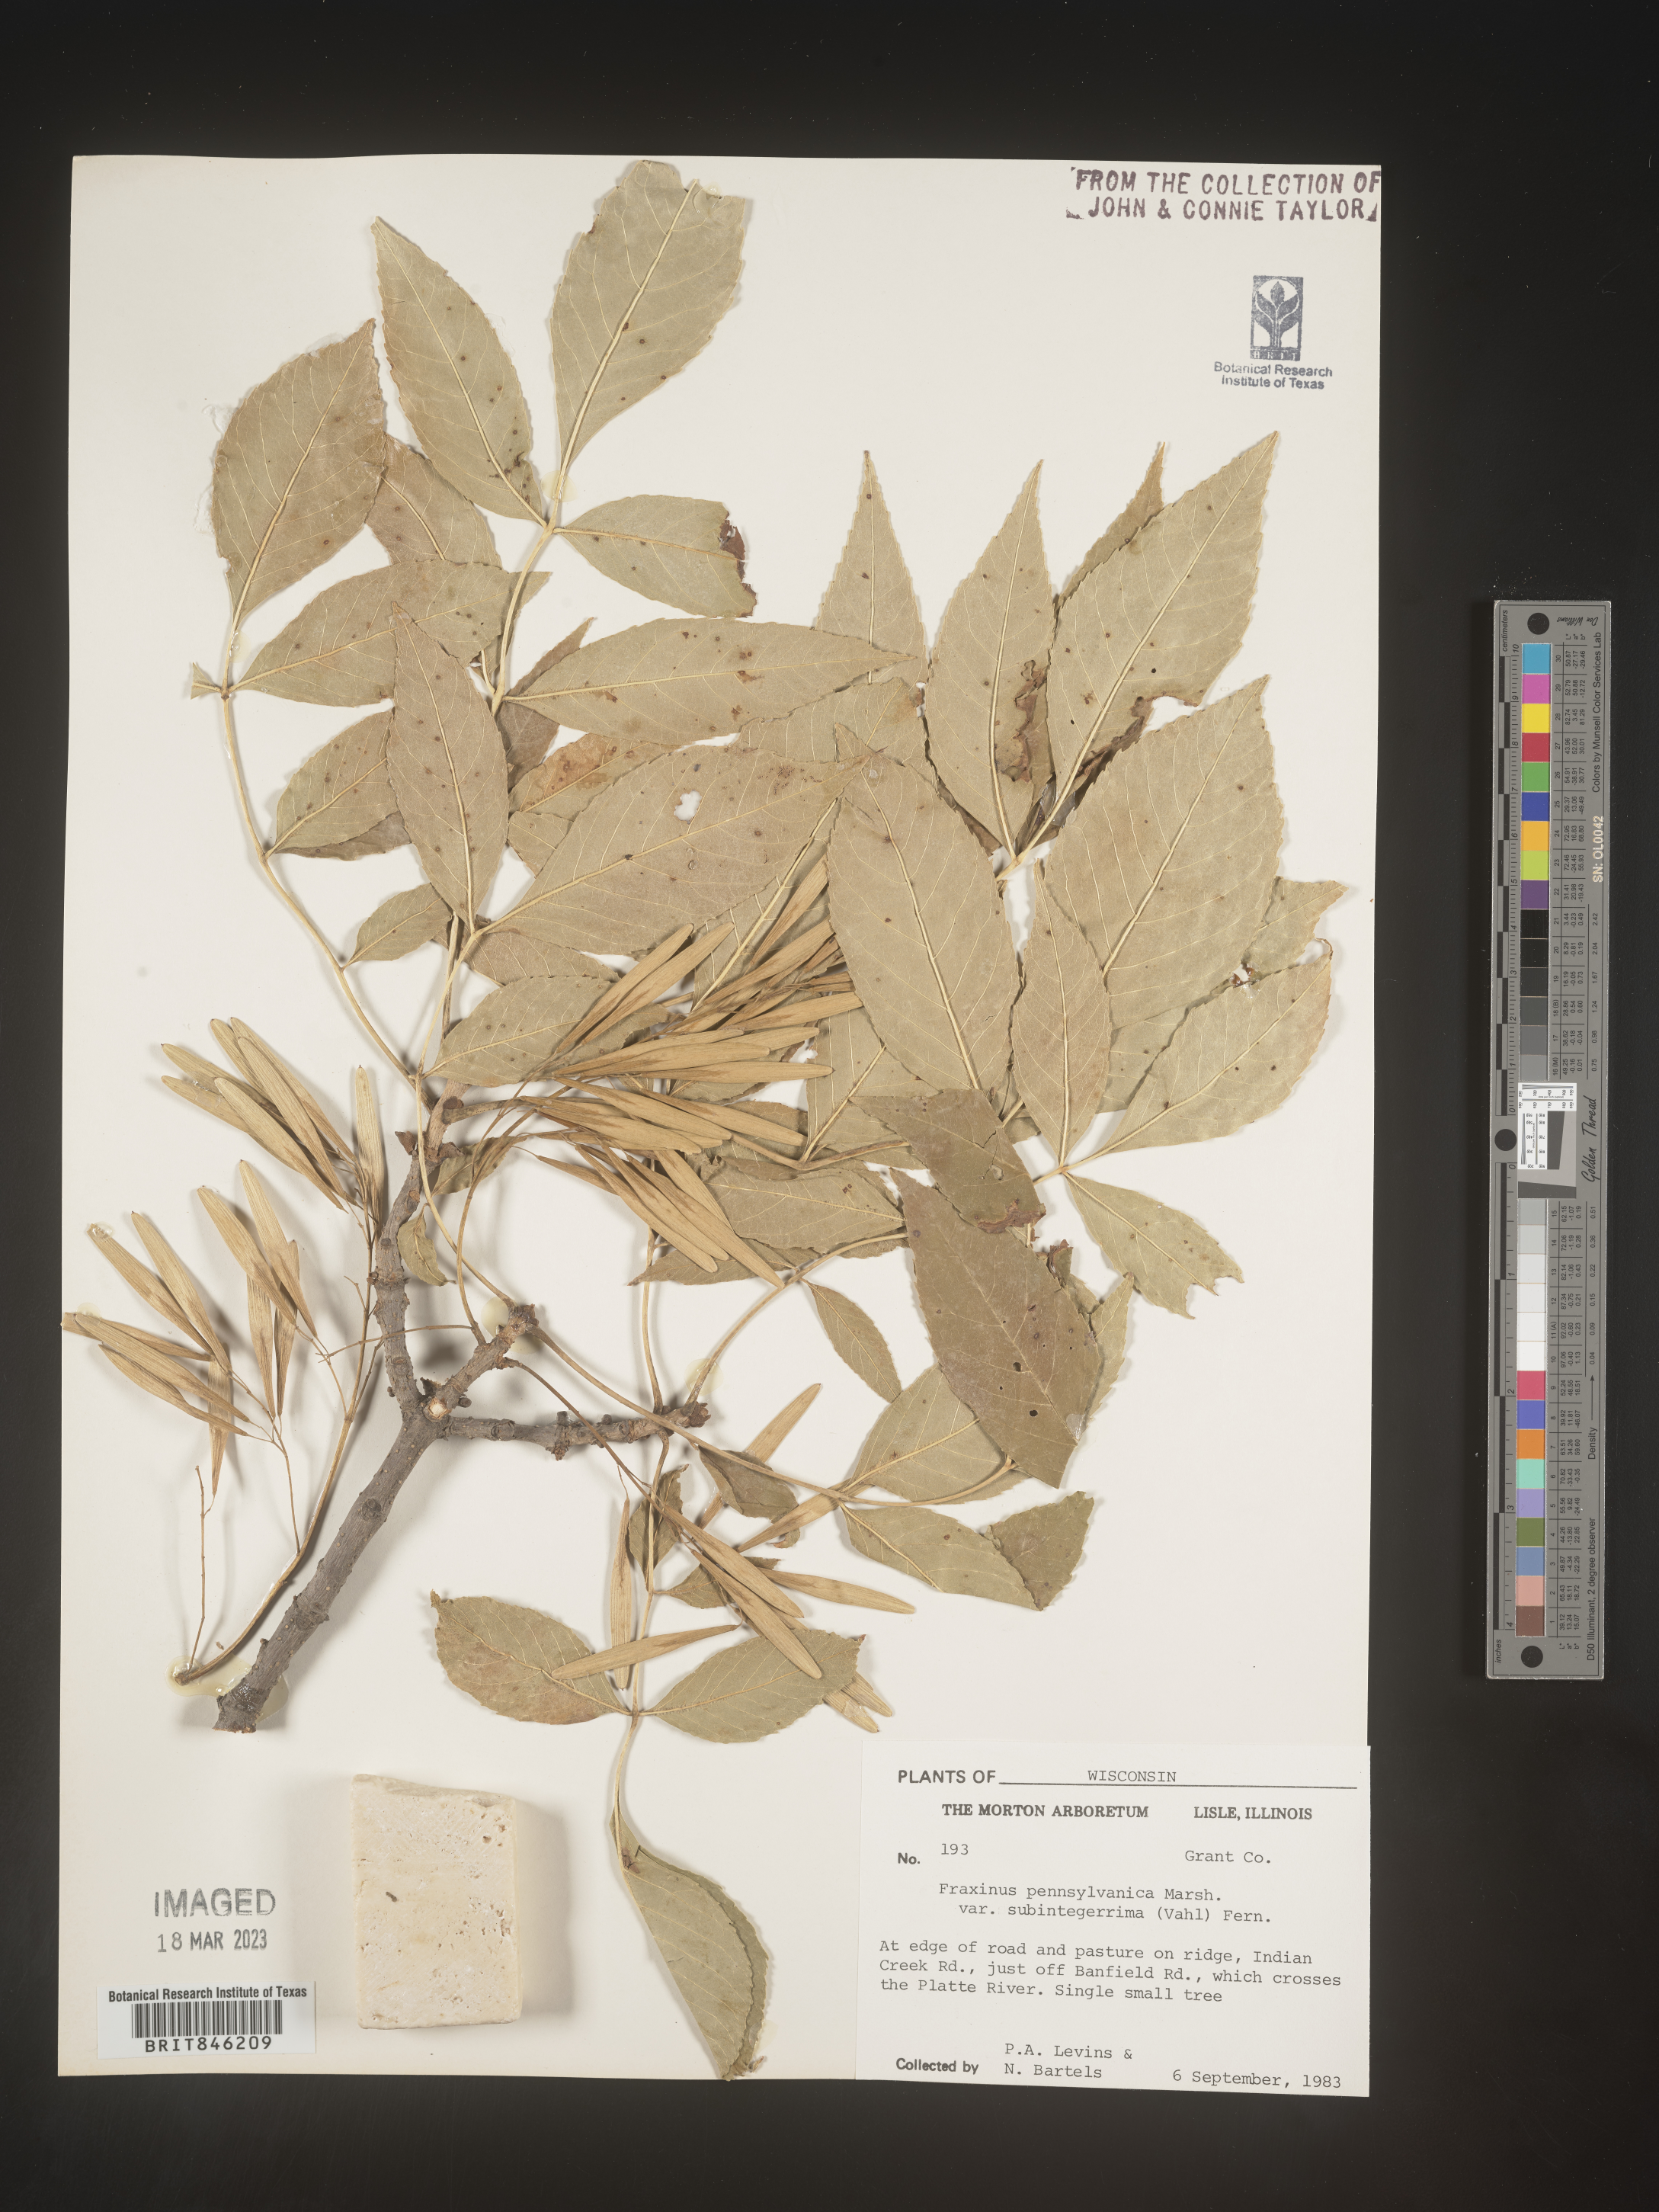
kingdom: Plantae
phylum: Tracheophyta
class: Magnoliopsida
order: Lamiales
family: Oleaceae
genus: Fraxinus
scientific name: Fraxinus pennsylvanica
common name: Green ash
